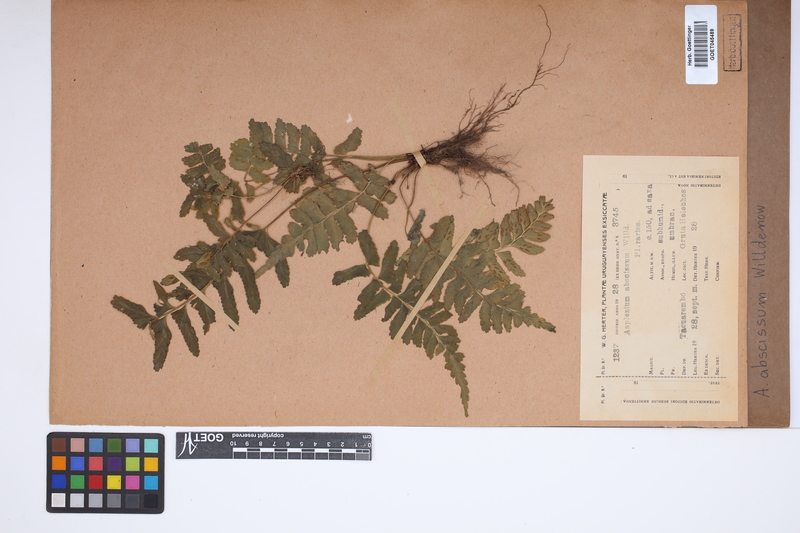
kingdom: Plantae
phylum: Tracheophyta
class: Polypodiopsida
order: Polypodiales
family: Aspleniaceae
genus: Asplenium
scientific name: Asplenium abscissum
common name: Cutleaf spleenwort
